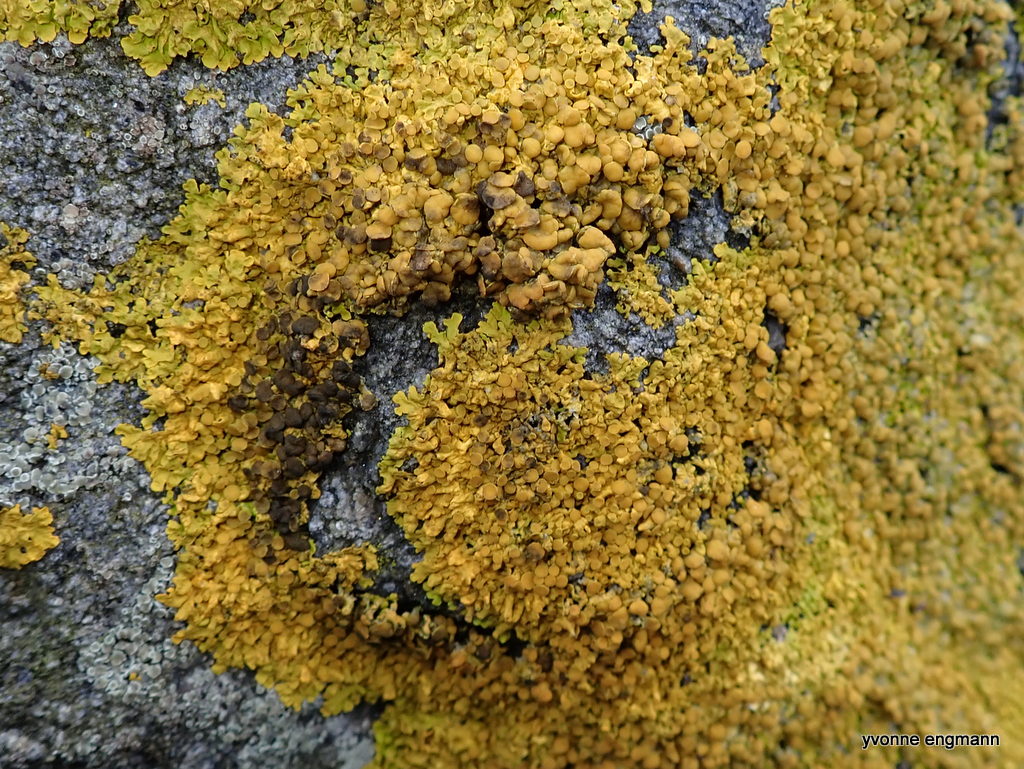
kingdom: Fungi
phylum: Ascomycota
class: Lecanoromycetes
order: Teloschistales
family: Teloschistaceae
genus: Xanthoria
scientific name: Xanthoria parietina
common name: almindelig væggelav
